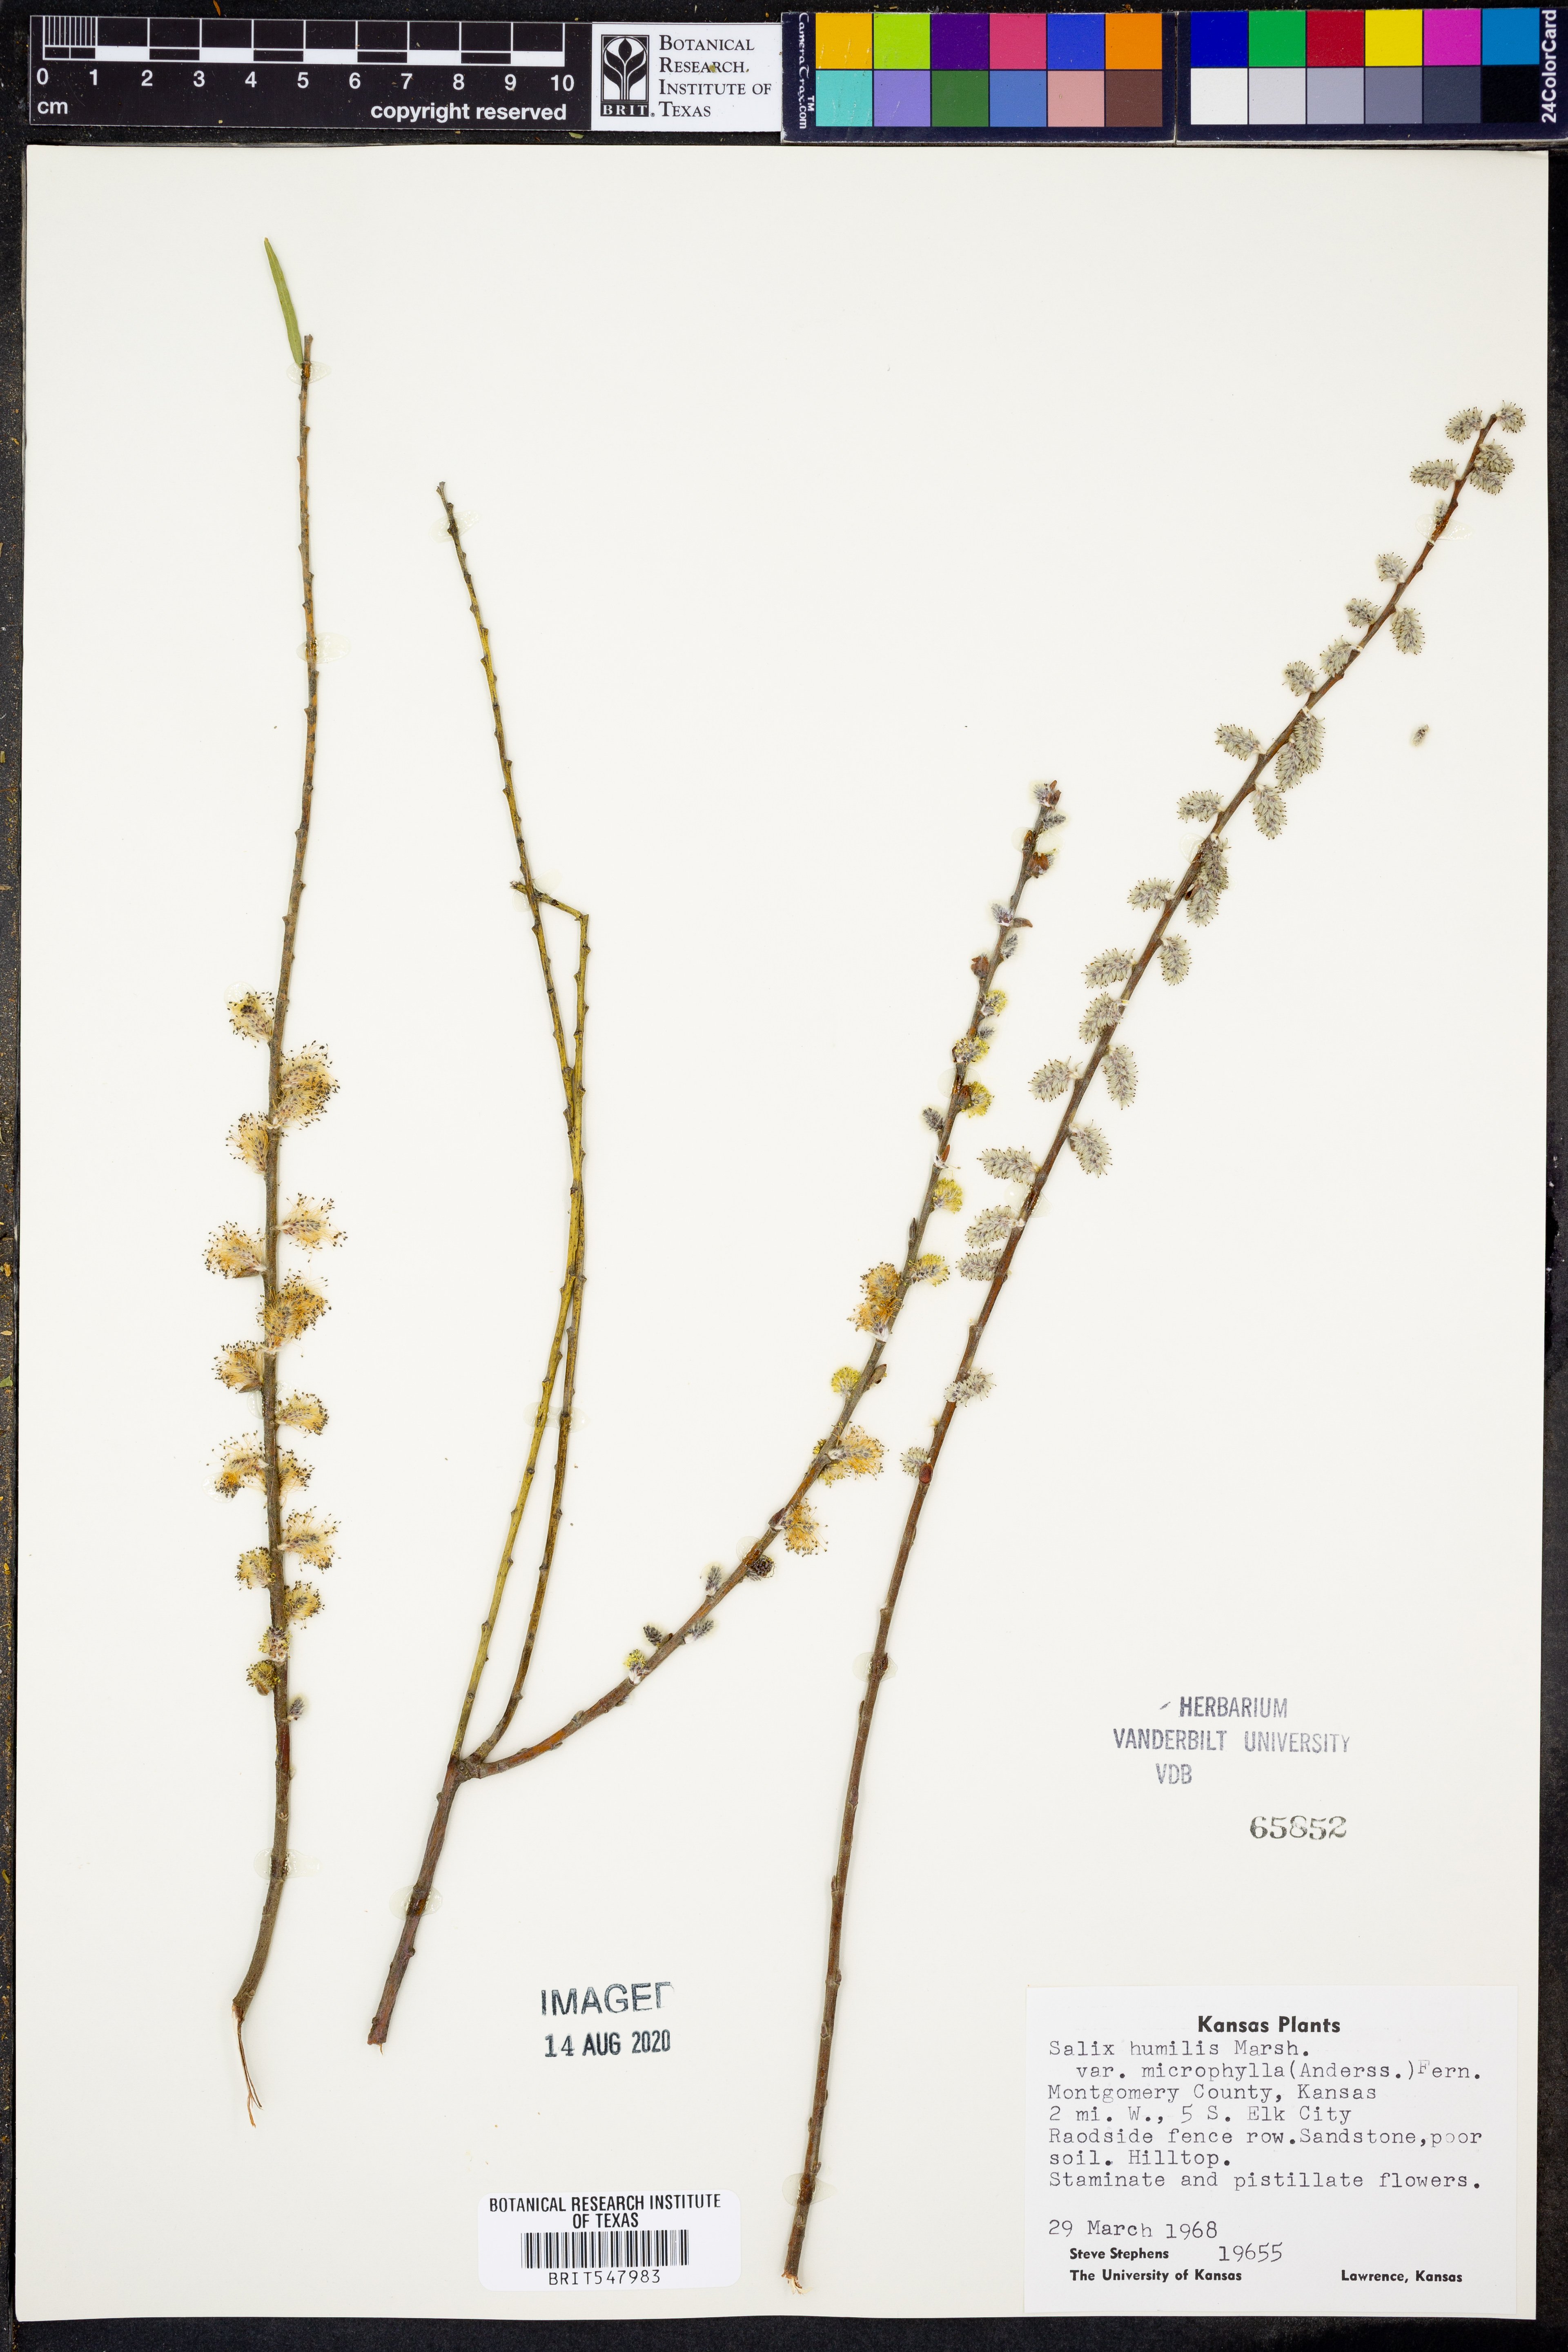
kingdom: Plantae
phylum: Tracheophyta
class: Magnoliopsida
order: Malpighiales
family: Salicaceae
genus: Salix
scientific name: Salix humilis
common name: Prairie willow
